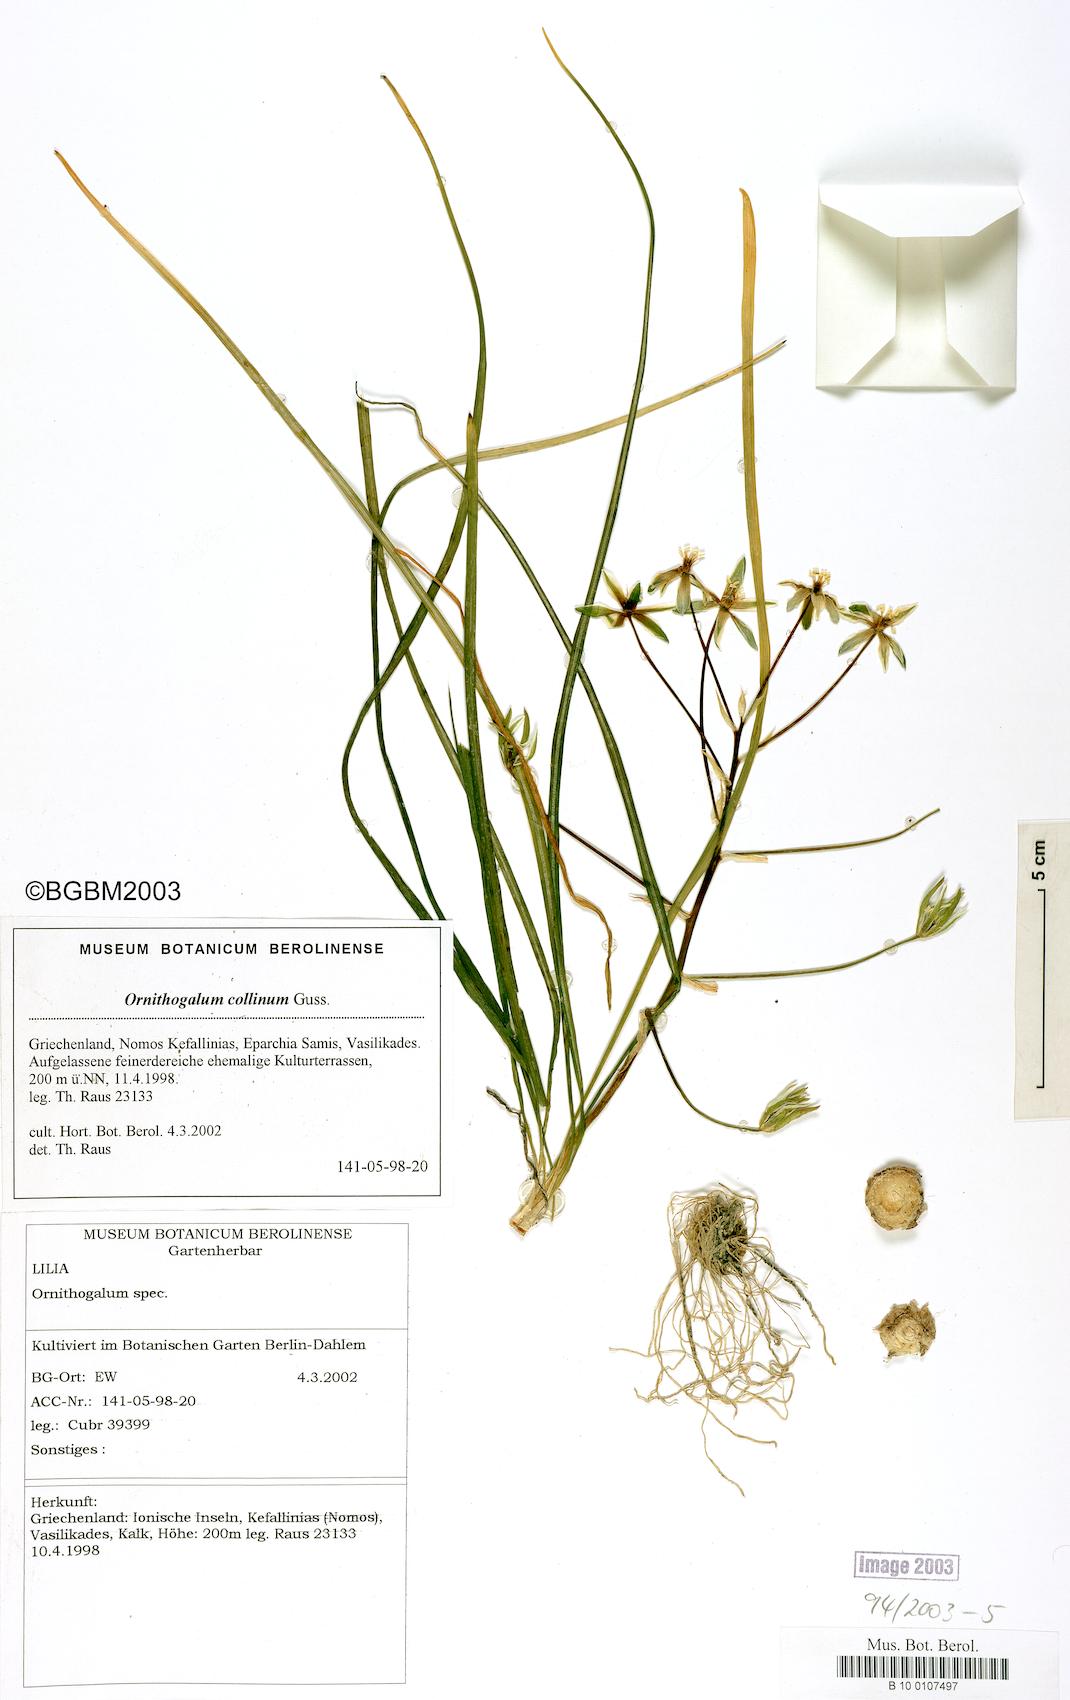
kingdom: Plantae
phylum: Tracheophyta
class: Liliopsida
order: Asparagales
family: Asparagaceae
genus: Ornithogalum
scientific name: Ornithogalum collinum
